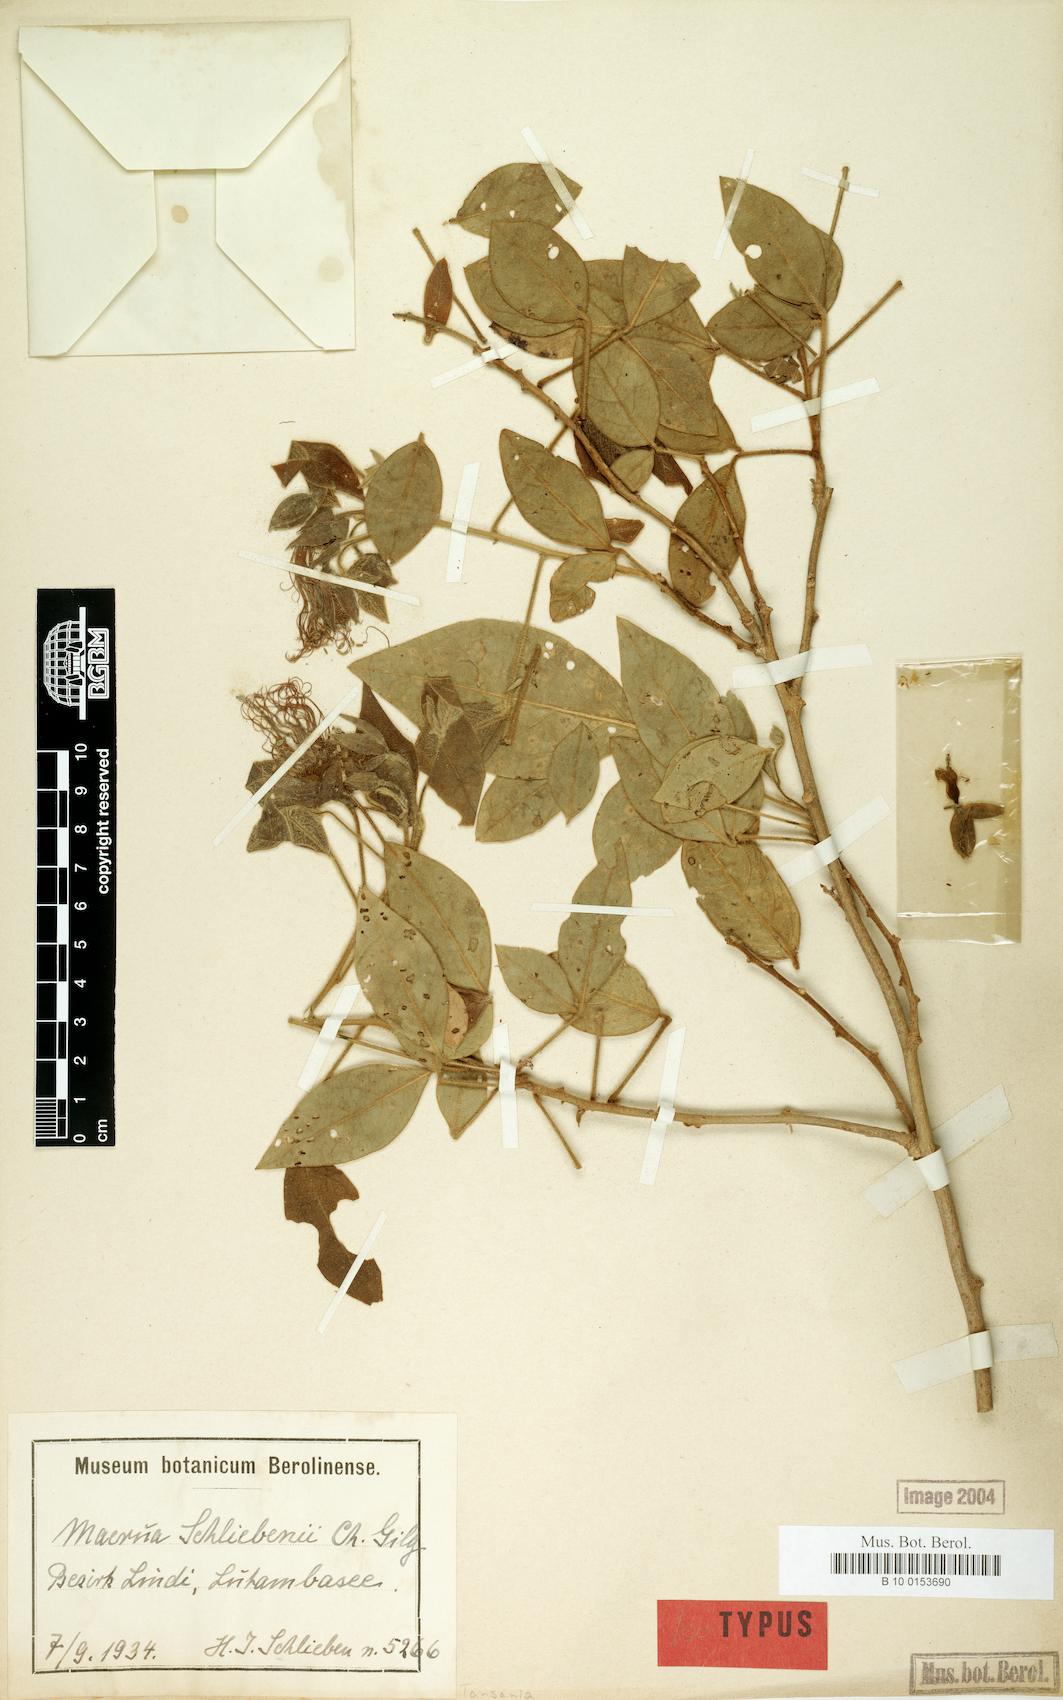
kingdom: Plantae
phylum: Tracheophyta
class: Magnoliopsida
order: Brassicales
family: Capparaceae
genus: Maerua
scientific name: Maerua schliebenii
